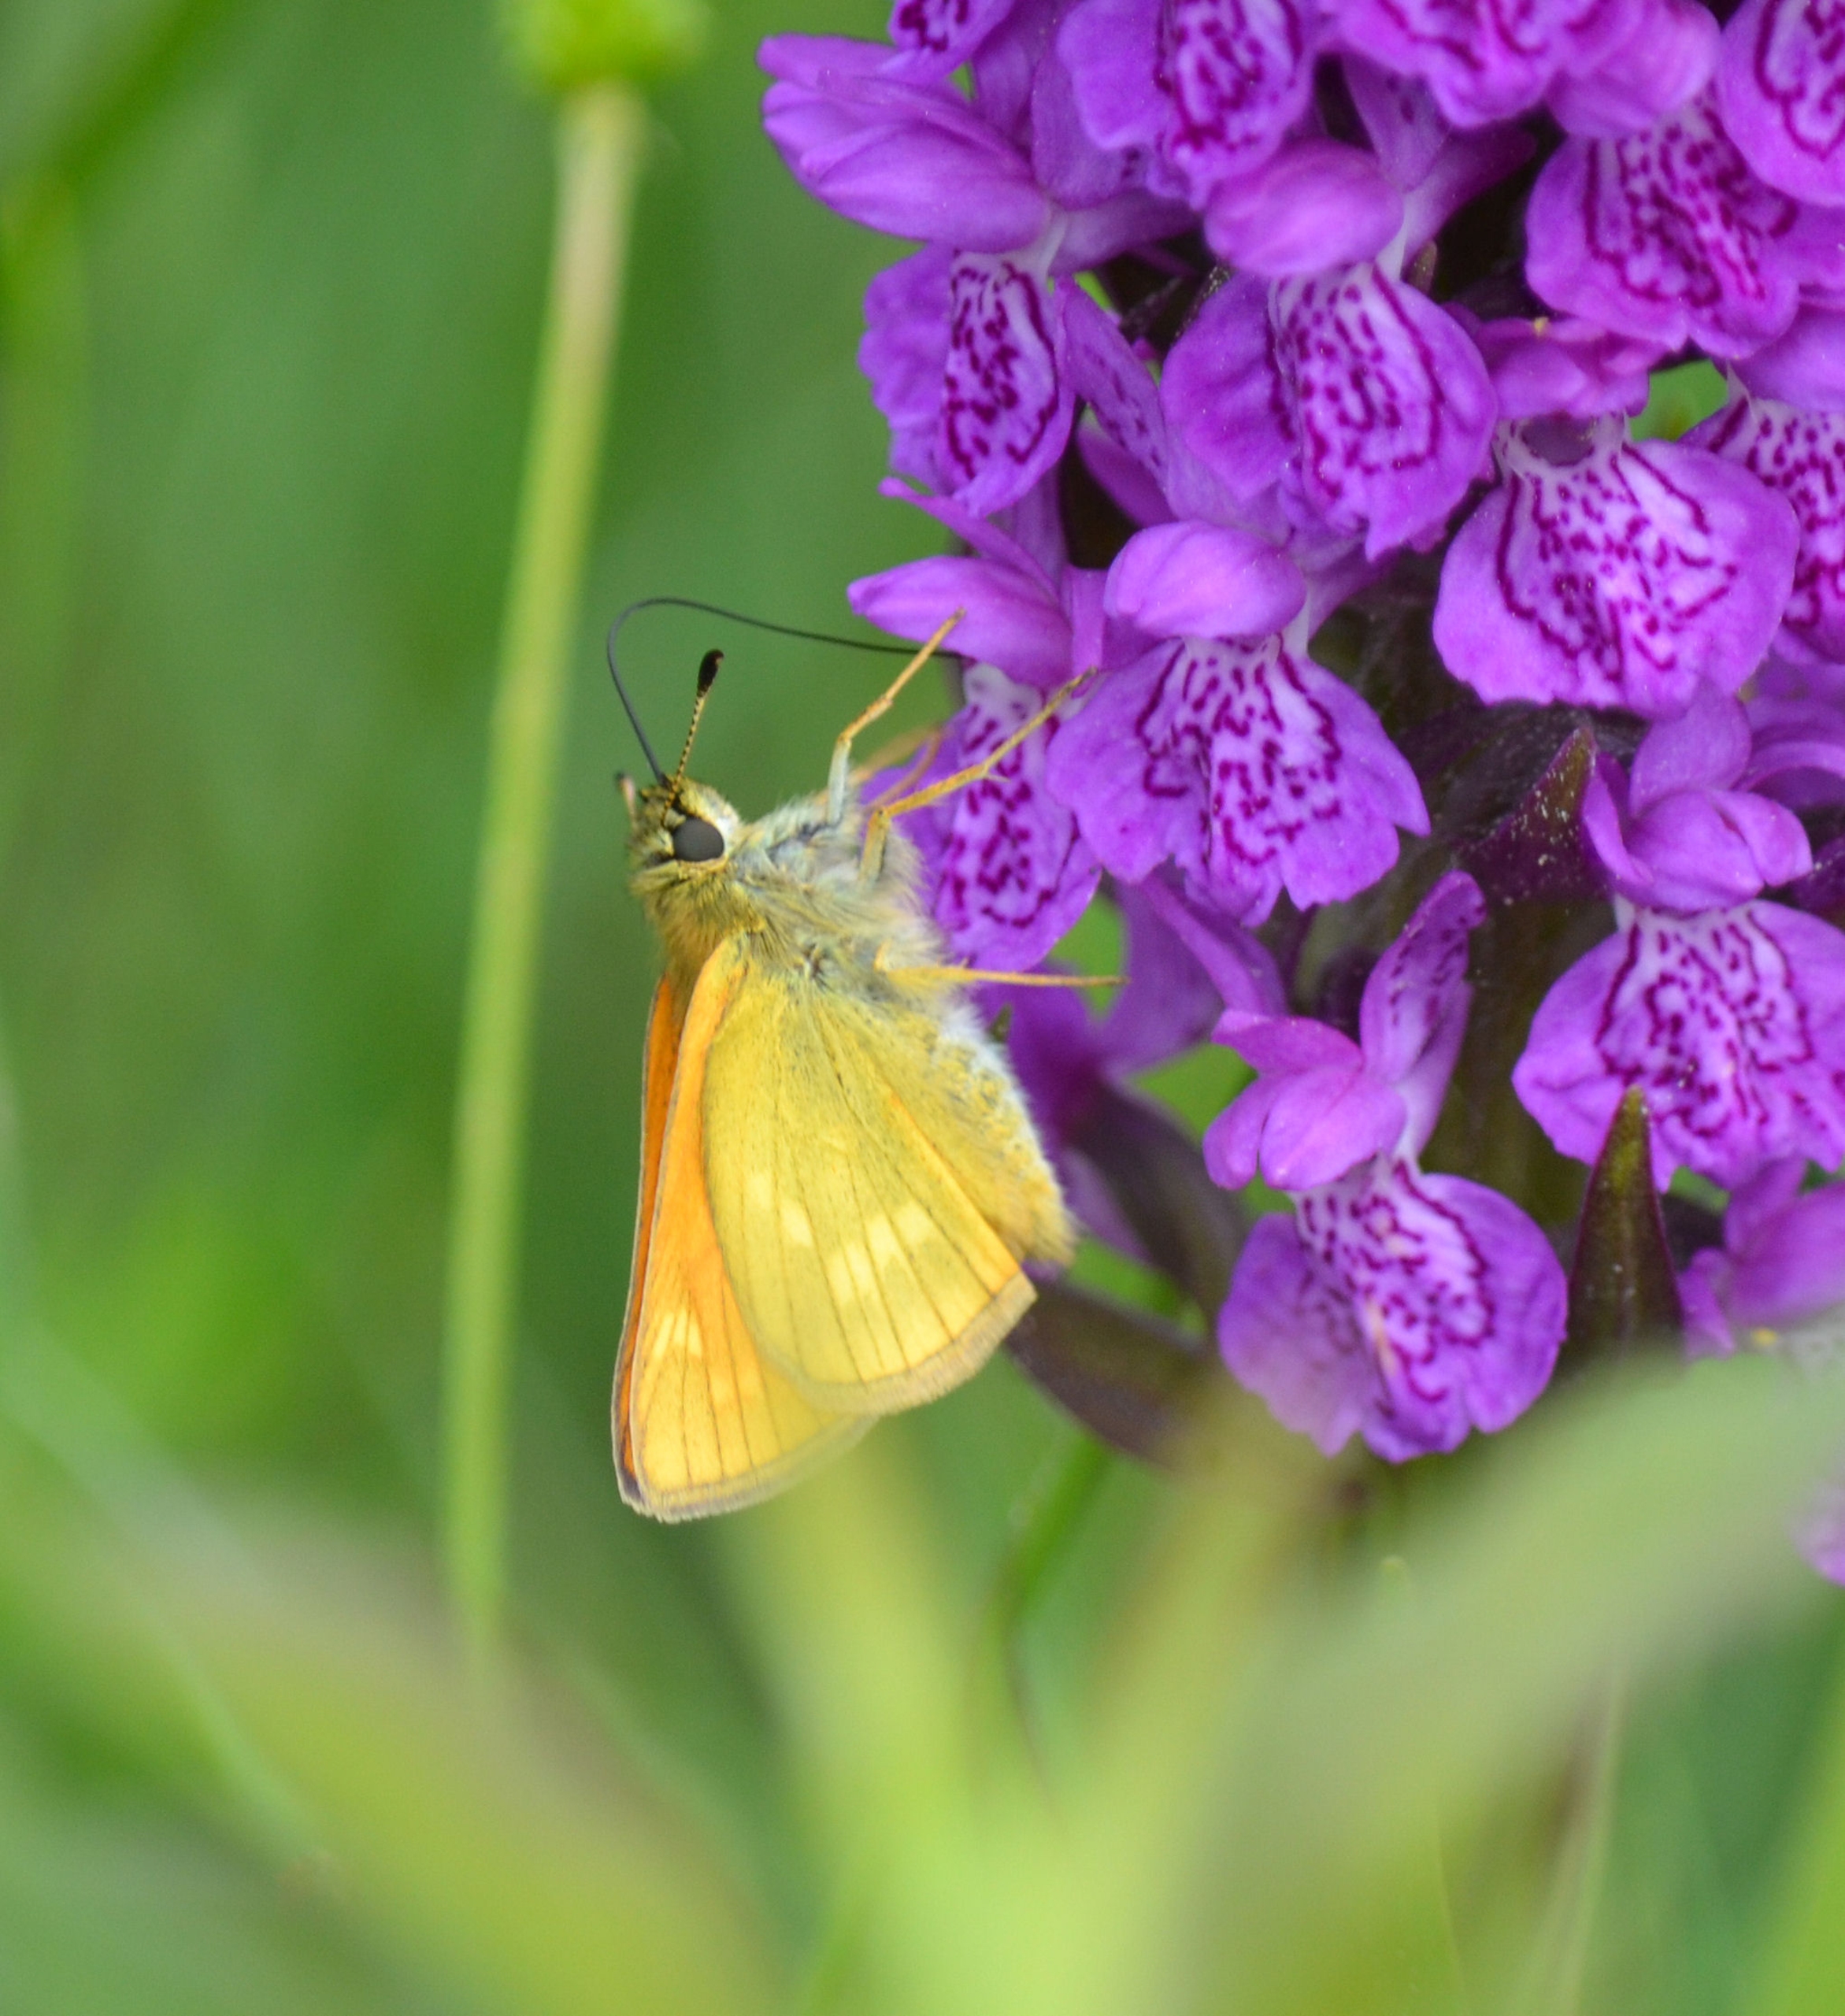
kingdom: Animalia
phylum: Arthropoda
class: Insecta
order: Lepidoptera
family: Hesperiidae
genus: Ochlodes
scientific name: Ochlodes venata
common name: Stor bredpande
